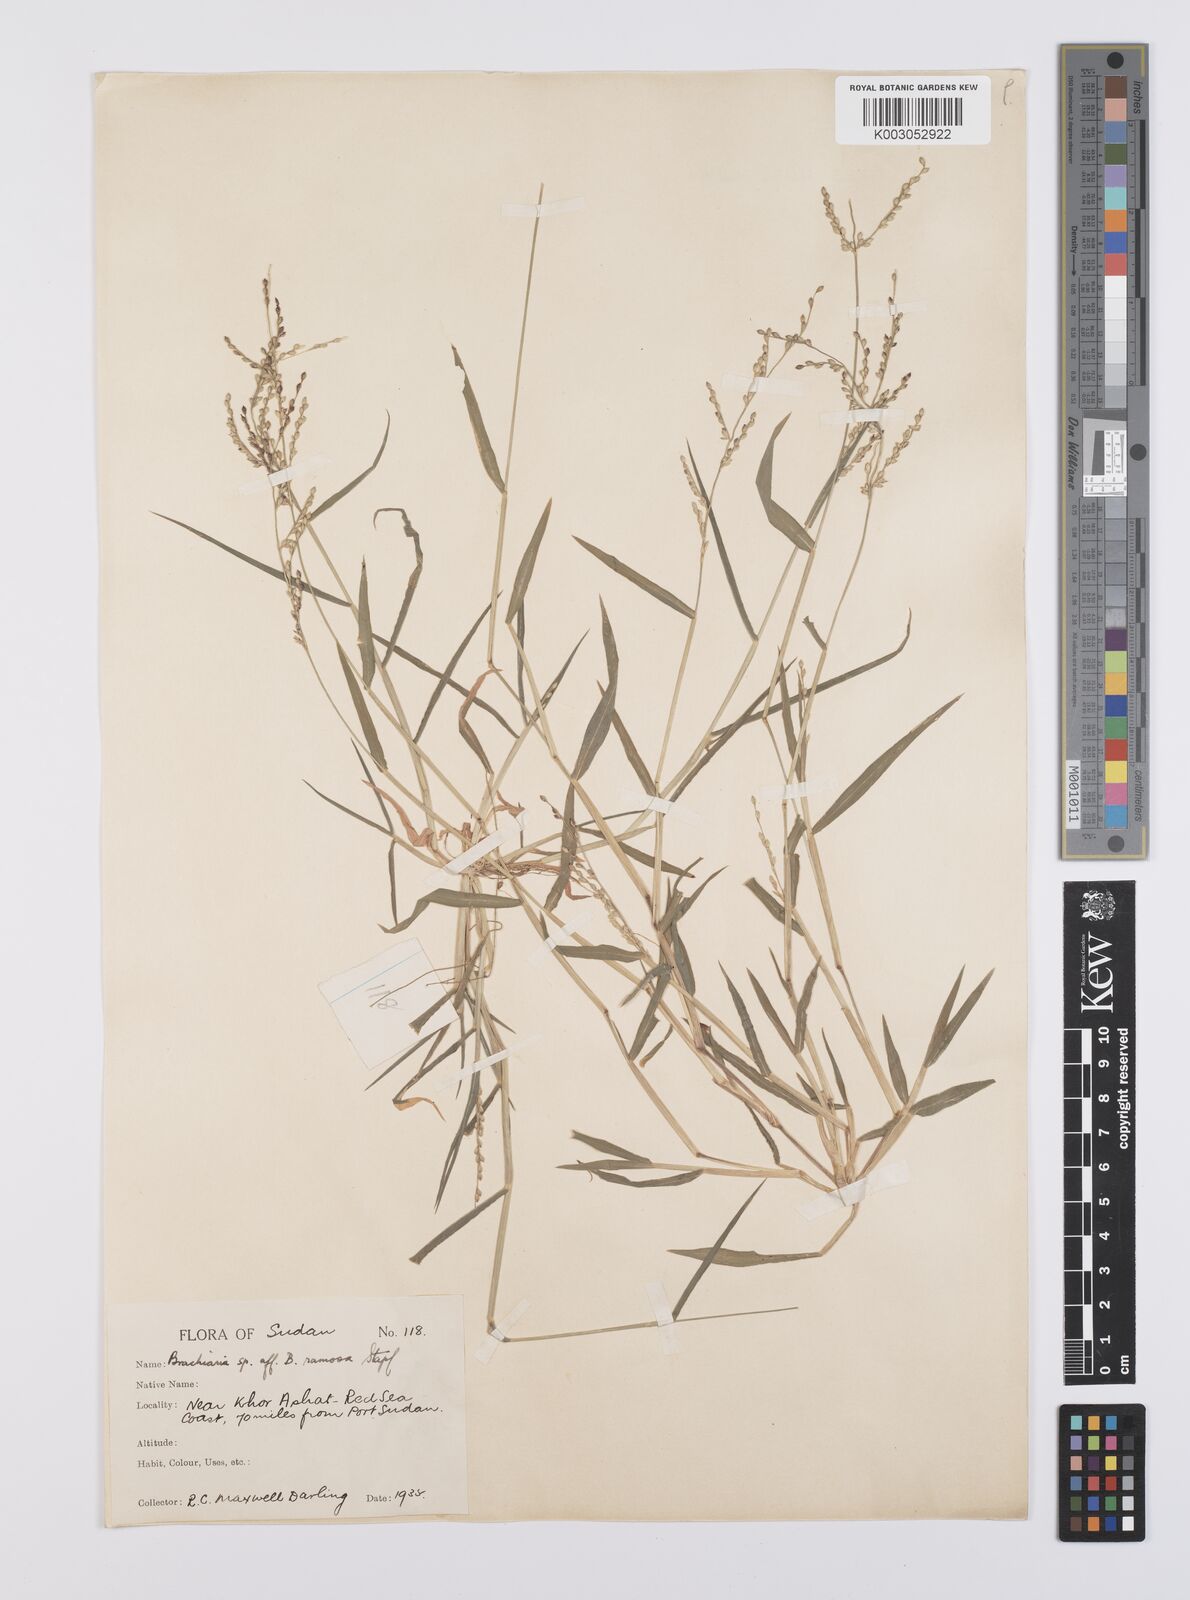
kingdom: Plantae
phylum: Tracheophyta
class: Liliopsida
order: Poales
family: Poaceae
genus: Urochloa
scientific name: Urochloa ramosa
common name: Browntop millet
